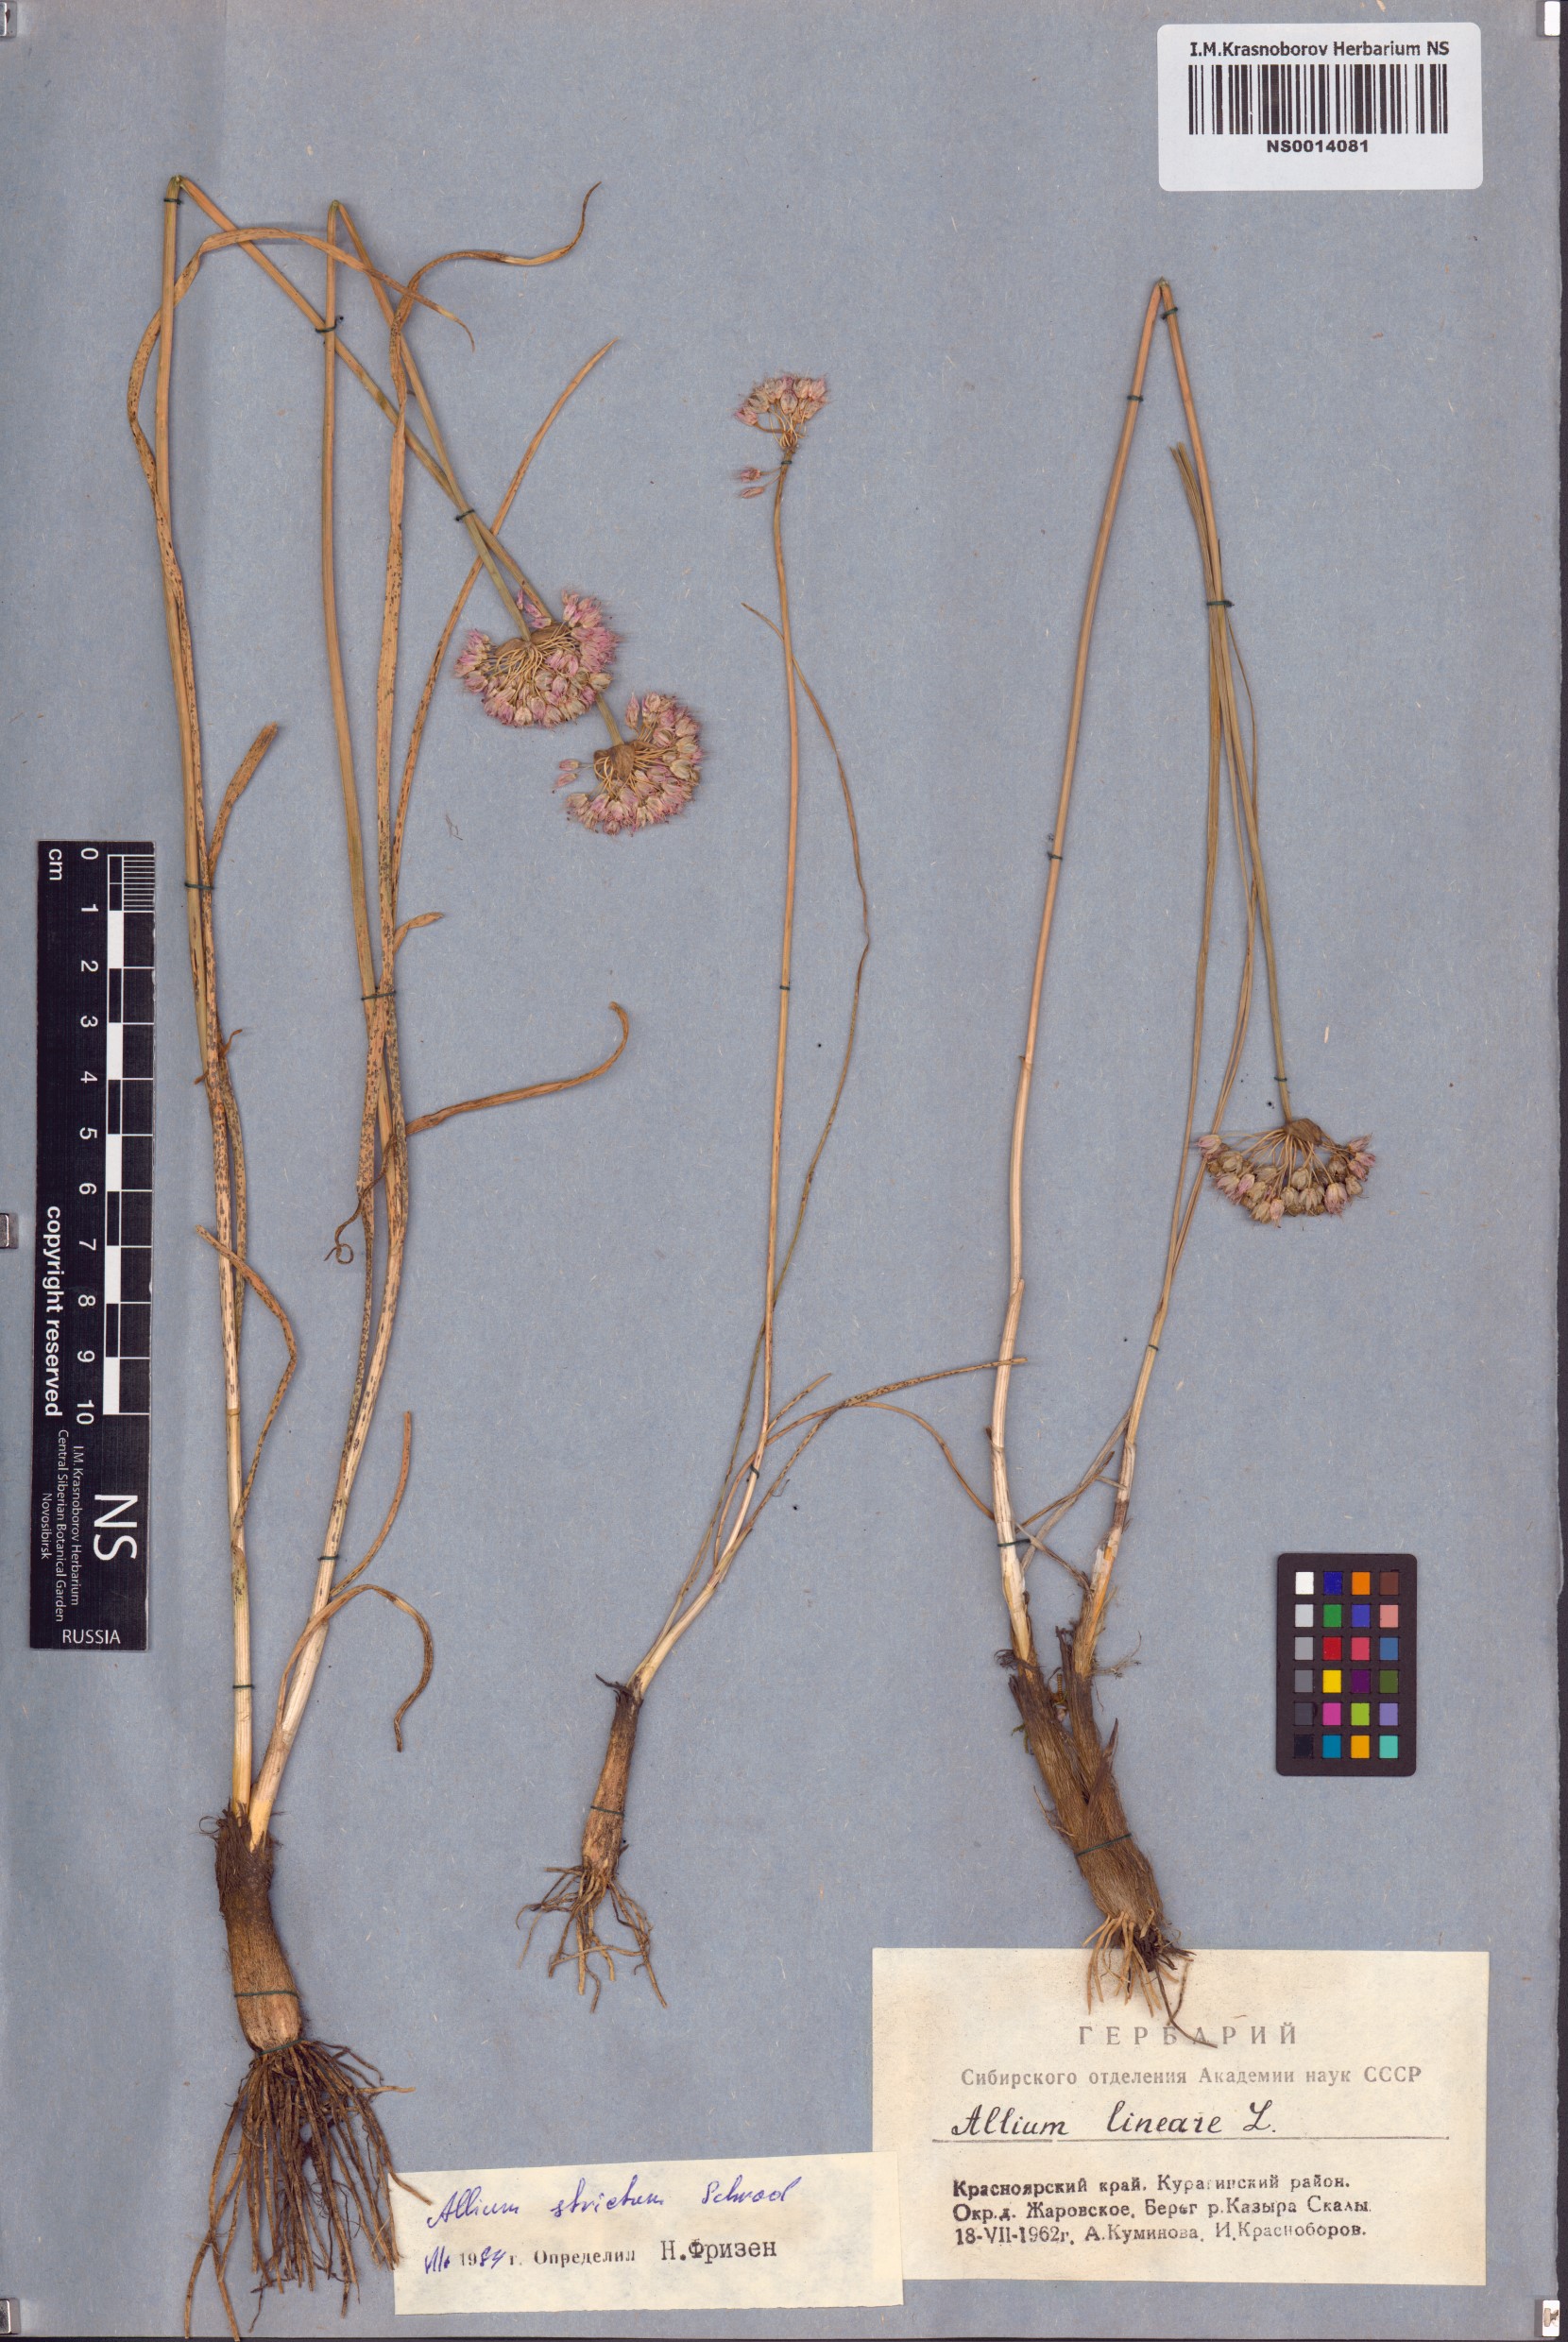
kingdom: Plantae
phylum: Tracheophyta
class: Liliopsida
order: Asparagales
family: Amaryllidaceae
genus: Allium
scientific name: Allium strictum
